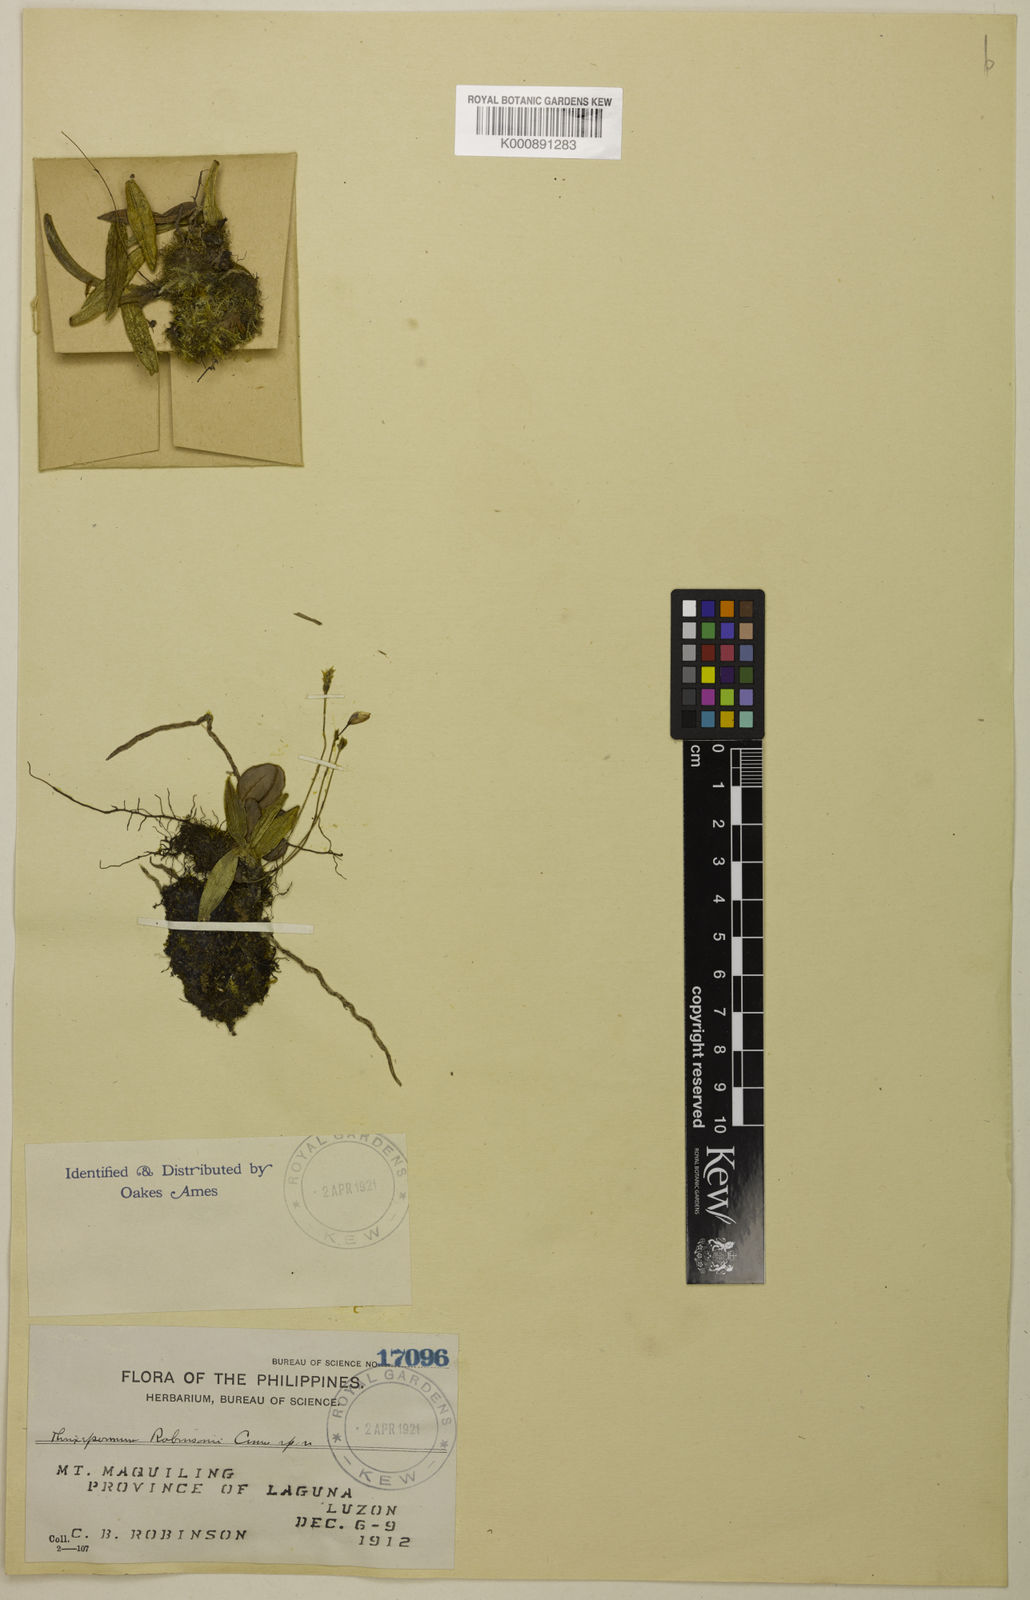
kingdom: Plantae
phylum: Tracheophyta
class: Liliopsida
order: Asparagales
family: Orchidaceae
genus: Thrixspermum
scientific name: Thrixspermum robinsonii
